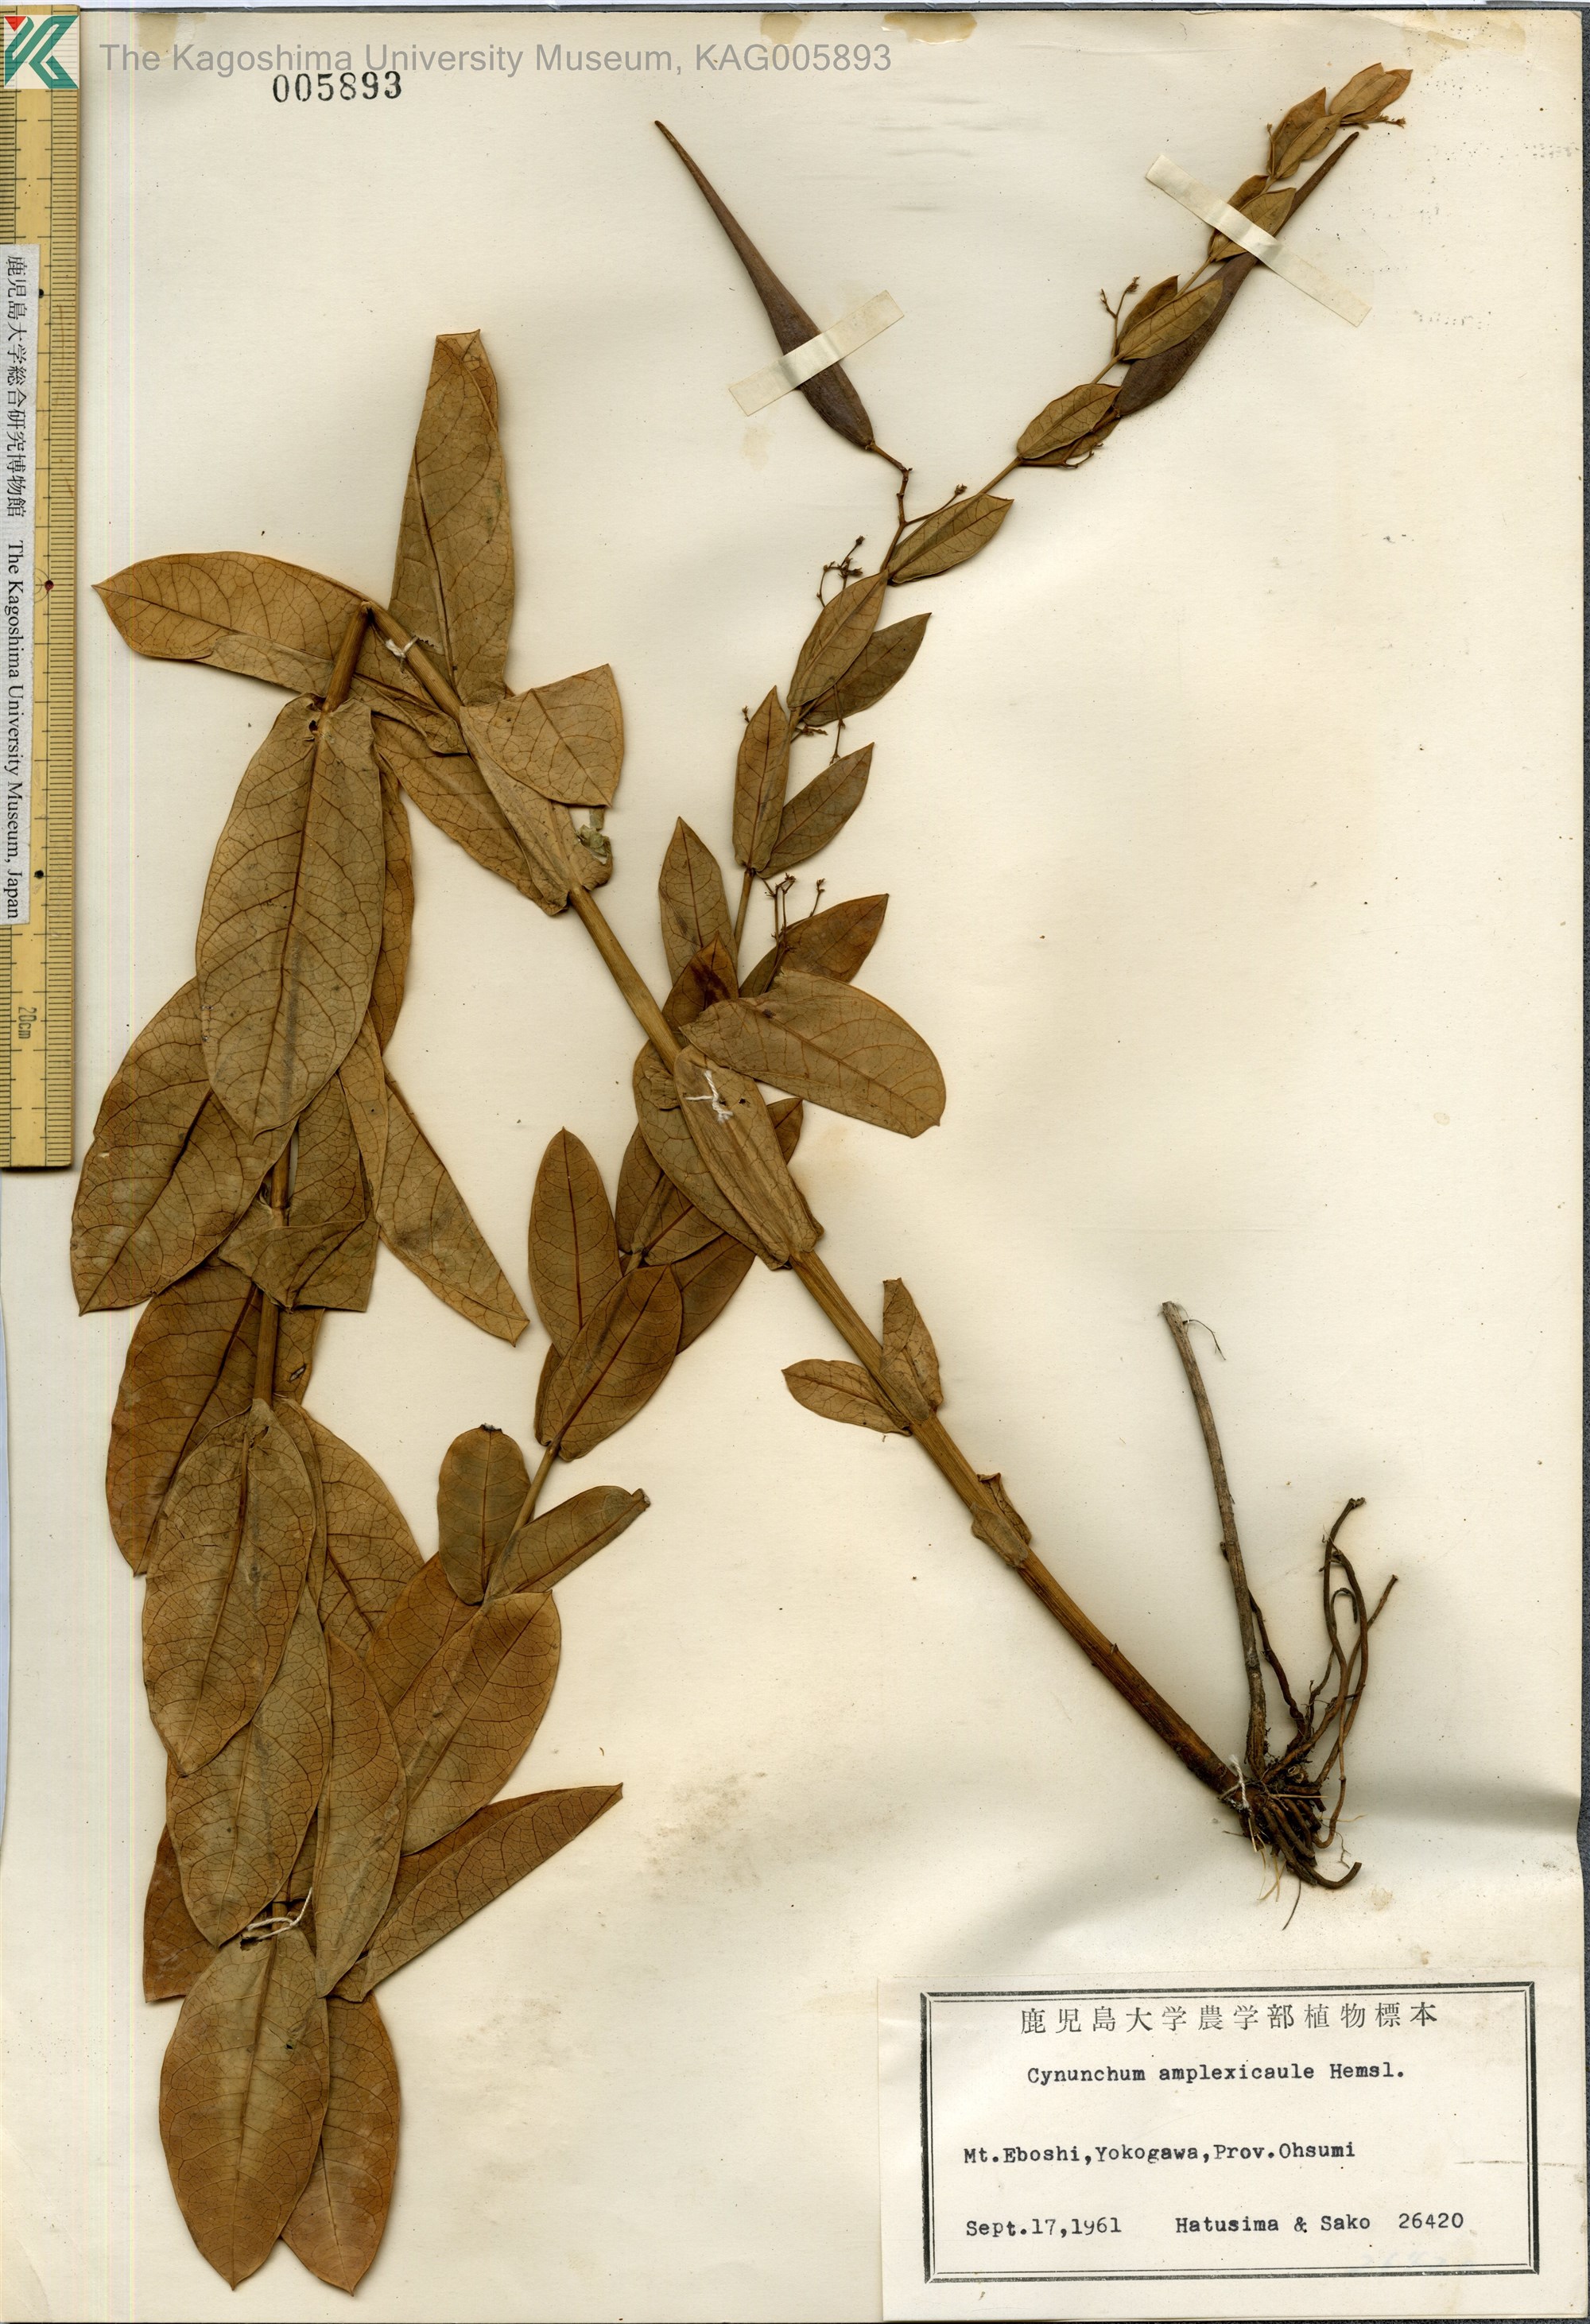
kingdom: Plantae
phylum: Tracheophyta
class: Magnoliopsida
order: Gentianales
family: Apocynaceae
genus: Vincetoxicum
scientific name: Vincetoxicum amplexicaule
